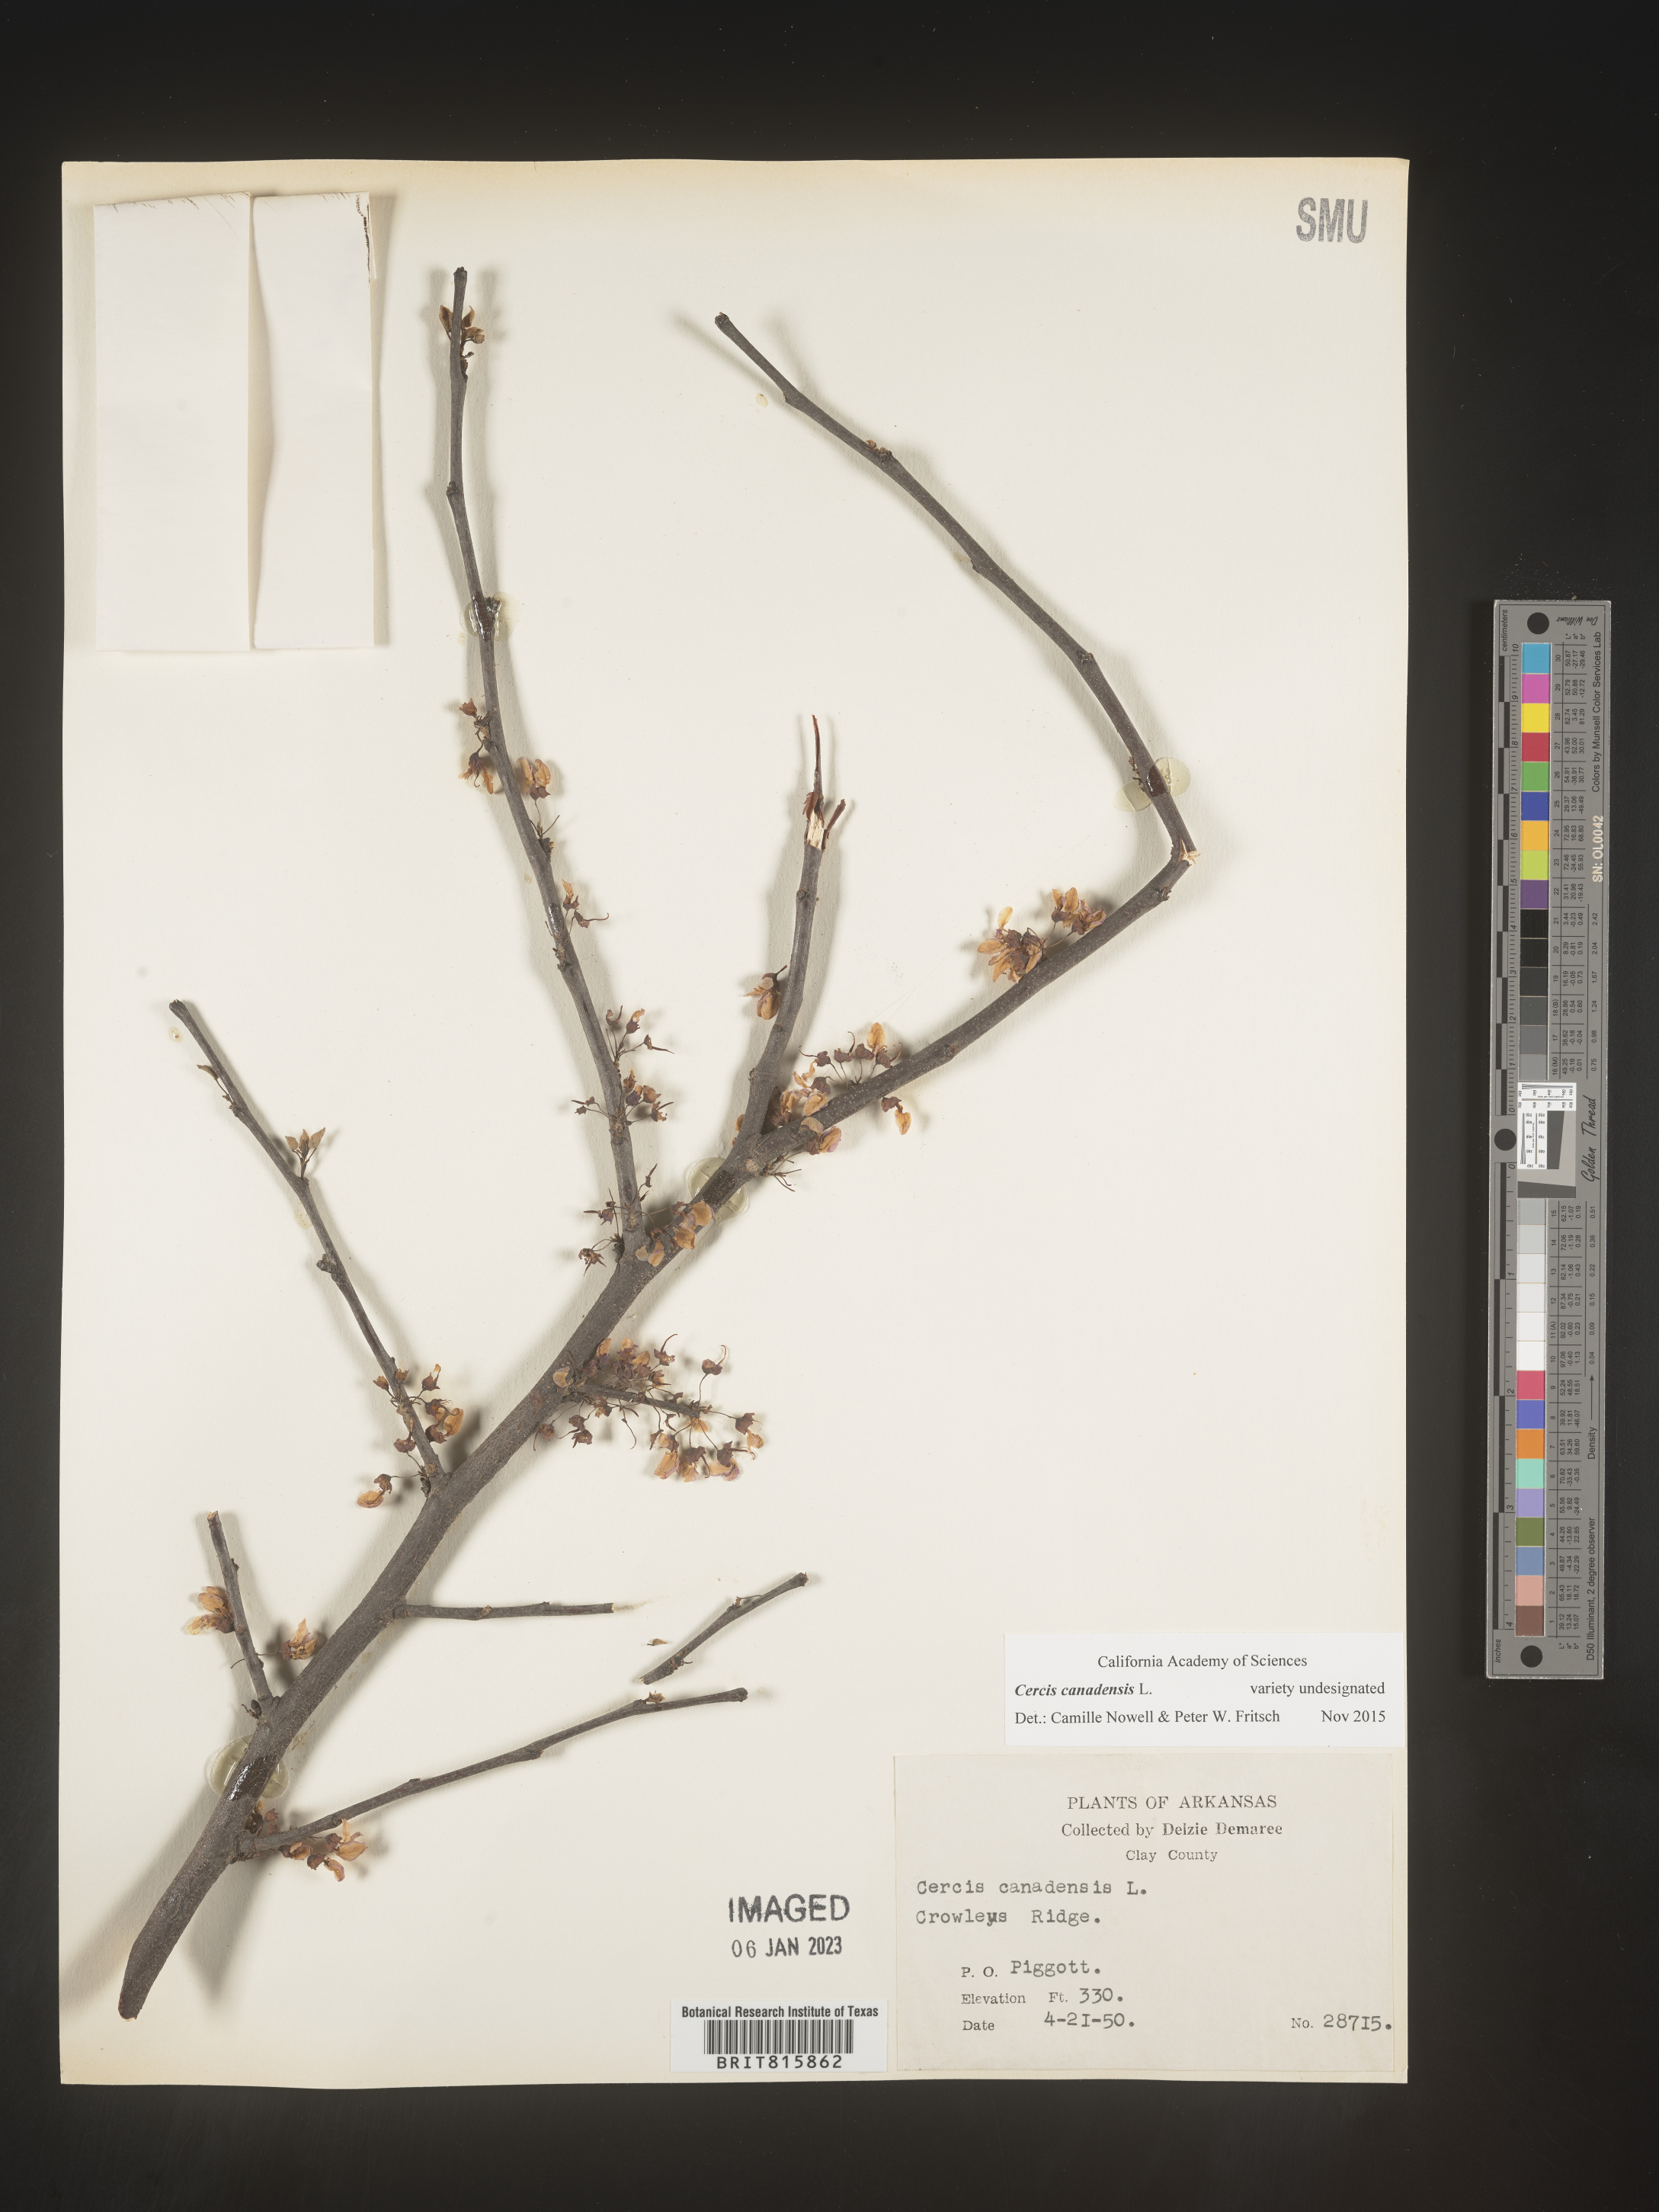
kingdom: Plantae
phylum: Tracheophyta
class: Magnoliopsida
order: Fabales
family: Fabaceae
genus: Cercis
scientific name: Cercis canadensis
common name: Eastern redbud
